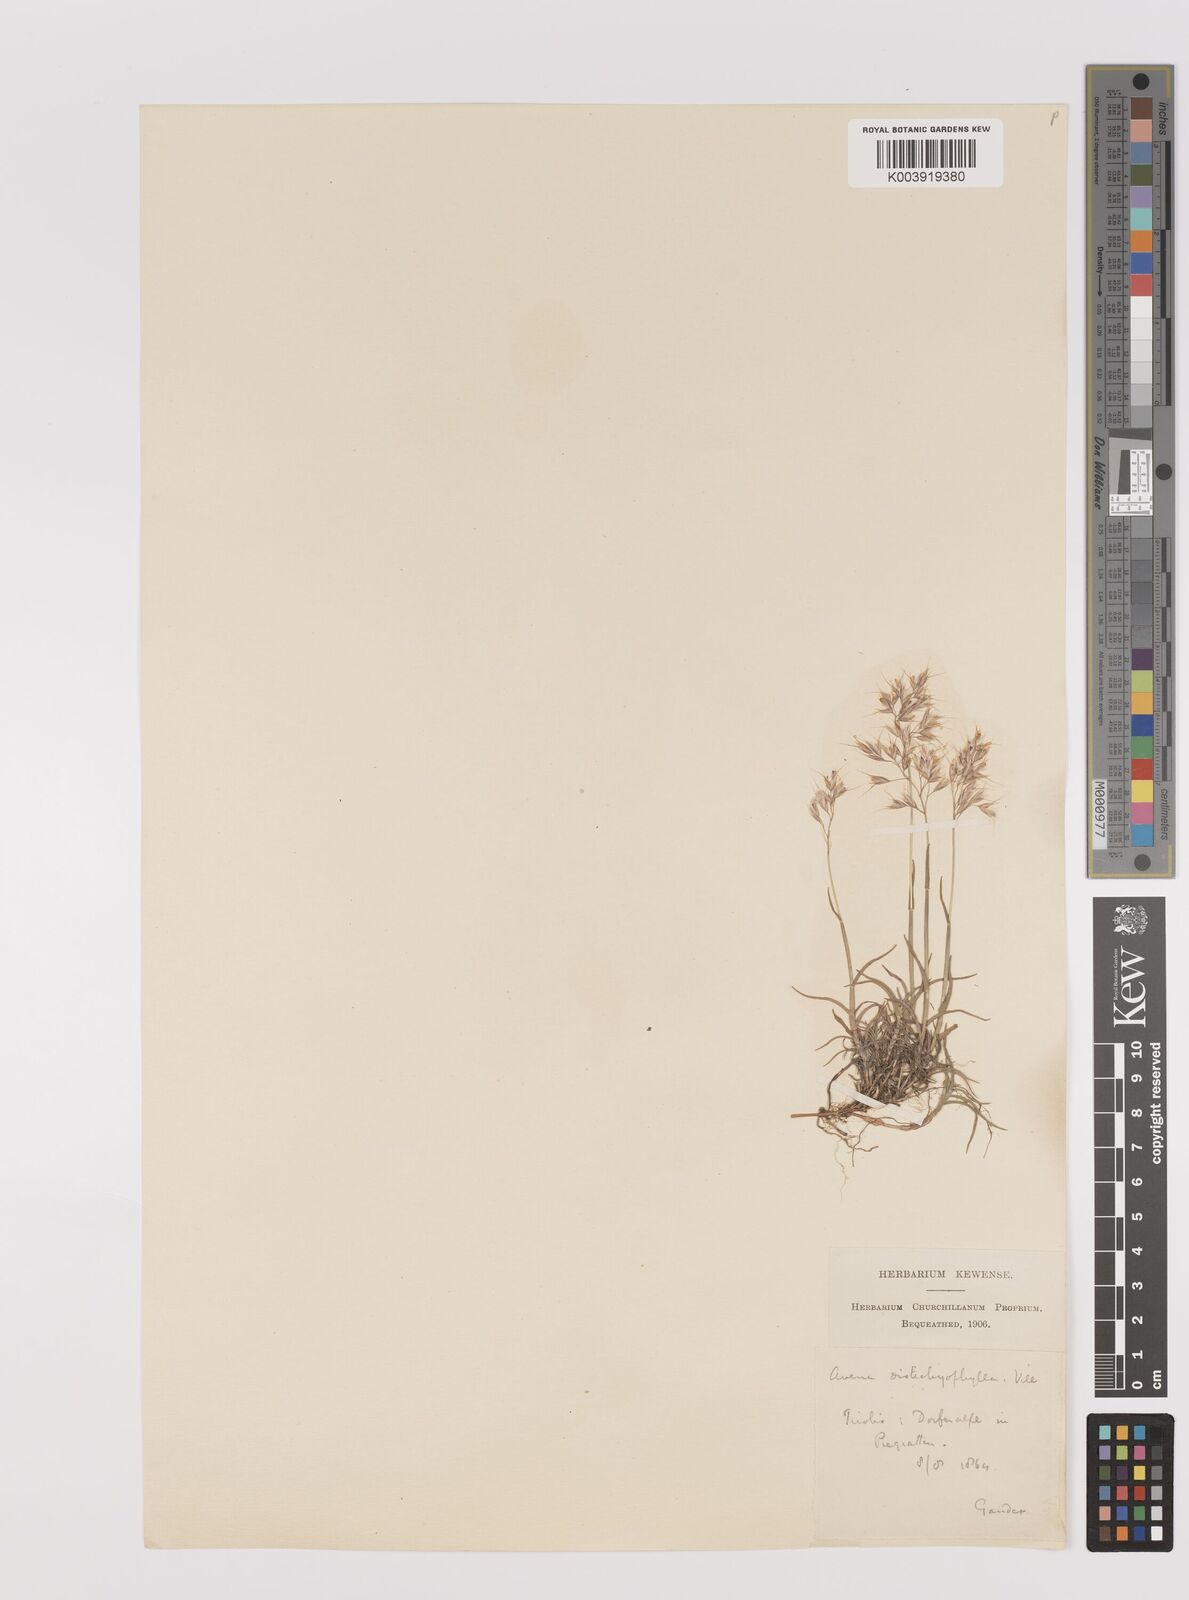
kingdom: Plantae
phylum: Tracheophyta
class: Liliopsida
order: Poales
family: Poaceae
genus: Acrospelion
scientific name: Acrospelion distichophyllum
